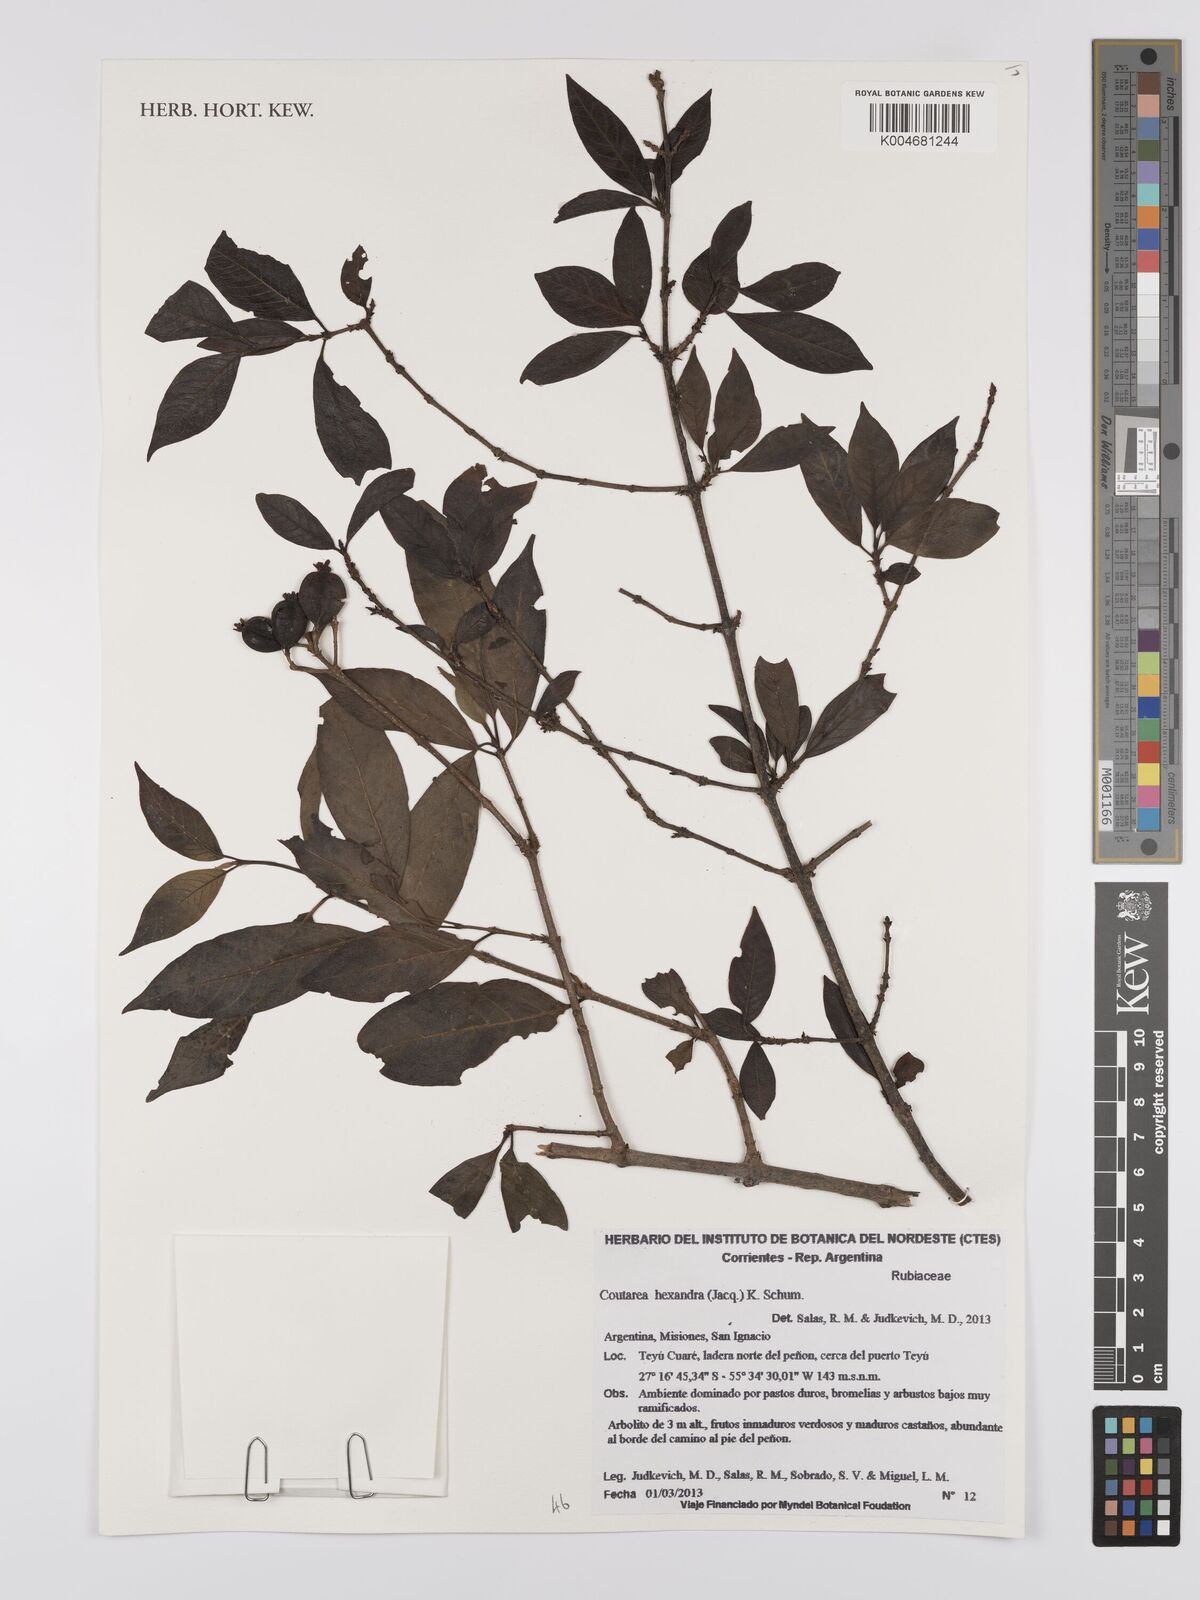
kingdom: Plantae
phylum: Tracheophyta
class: Magnoliopsida
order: Gentianales
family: Rubiaceae
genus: Coutarea
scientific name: Coutarea hexandra
